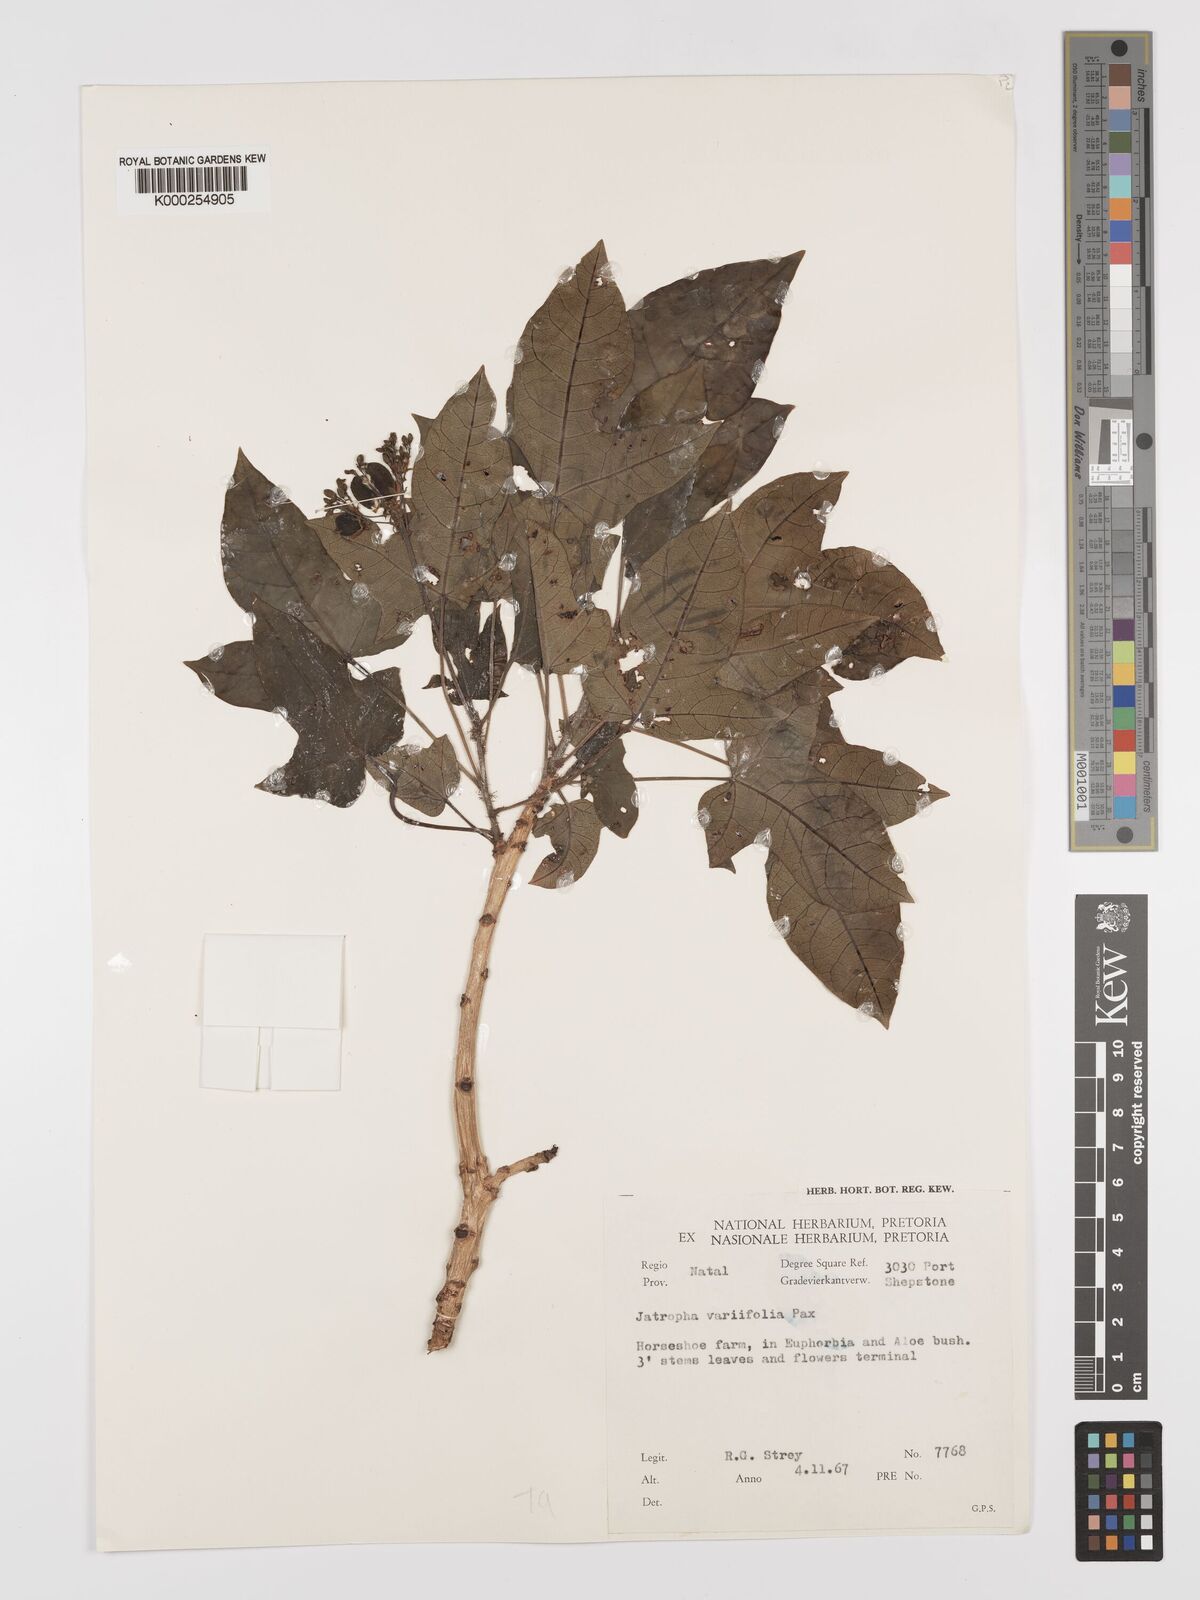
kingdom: Plantae
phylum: Tracheophyta
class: Magnoliopsida
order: Malpighiales
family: Euphorbiaceae
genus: Jatropha
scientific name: Jatropha variifolia
